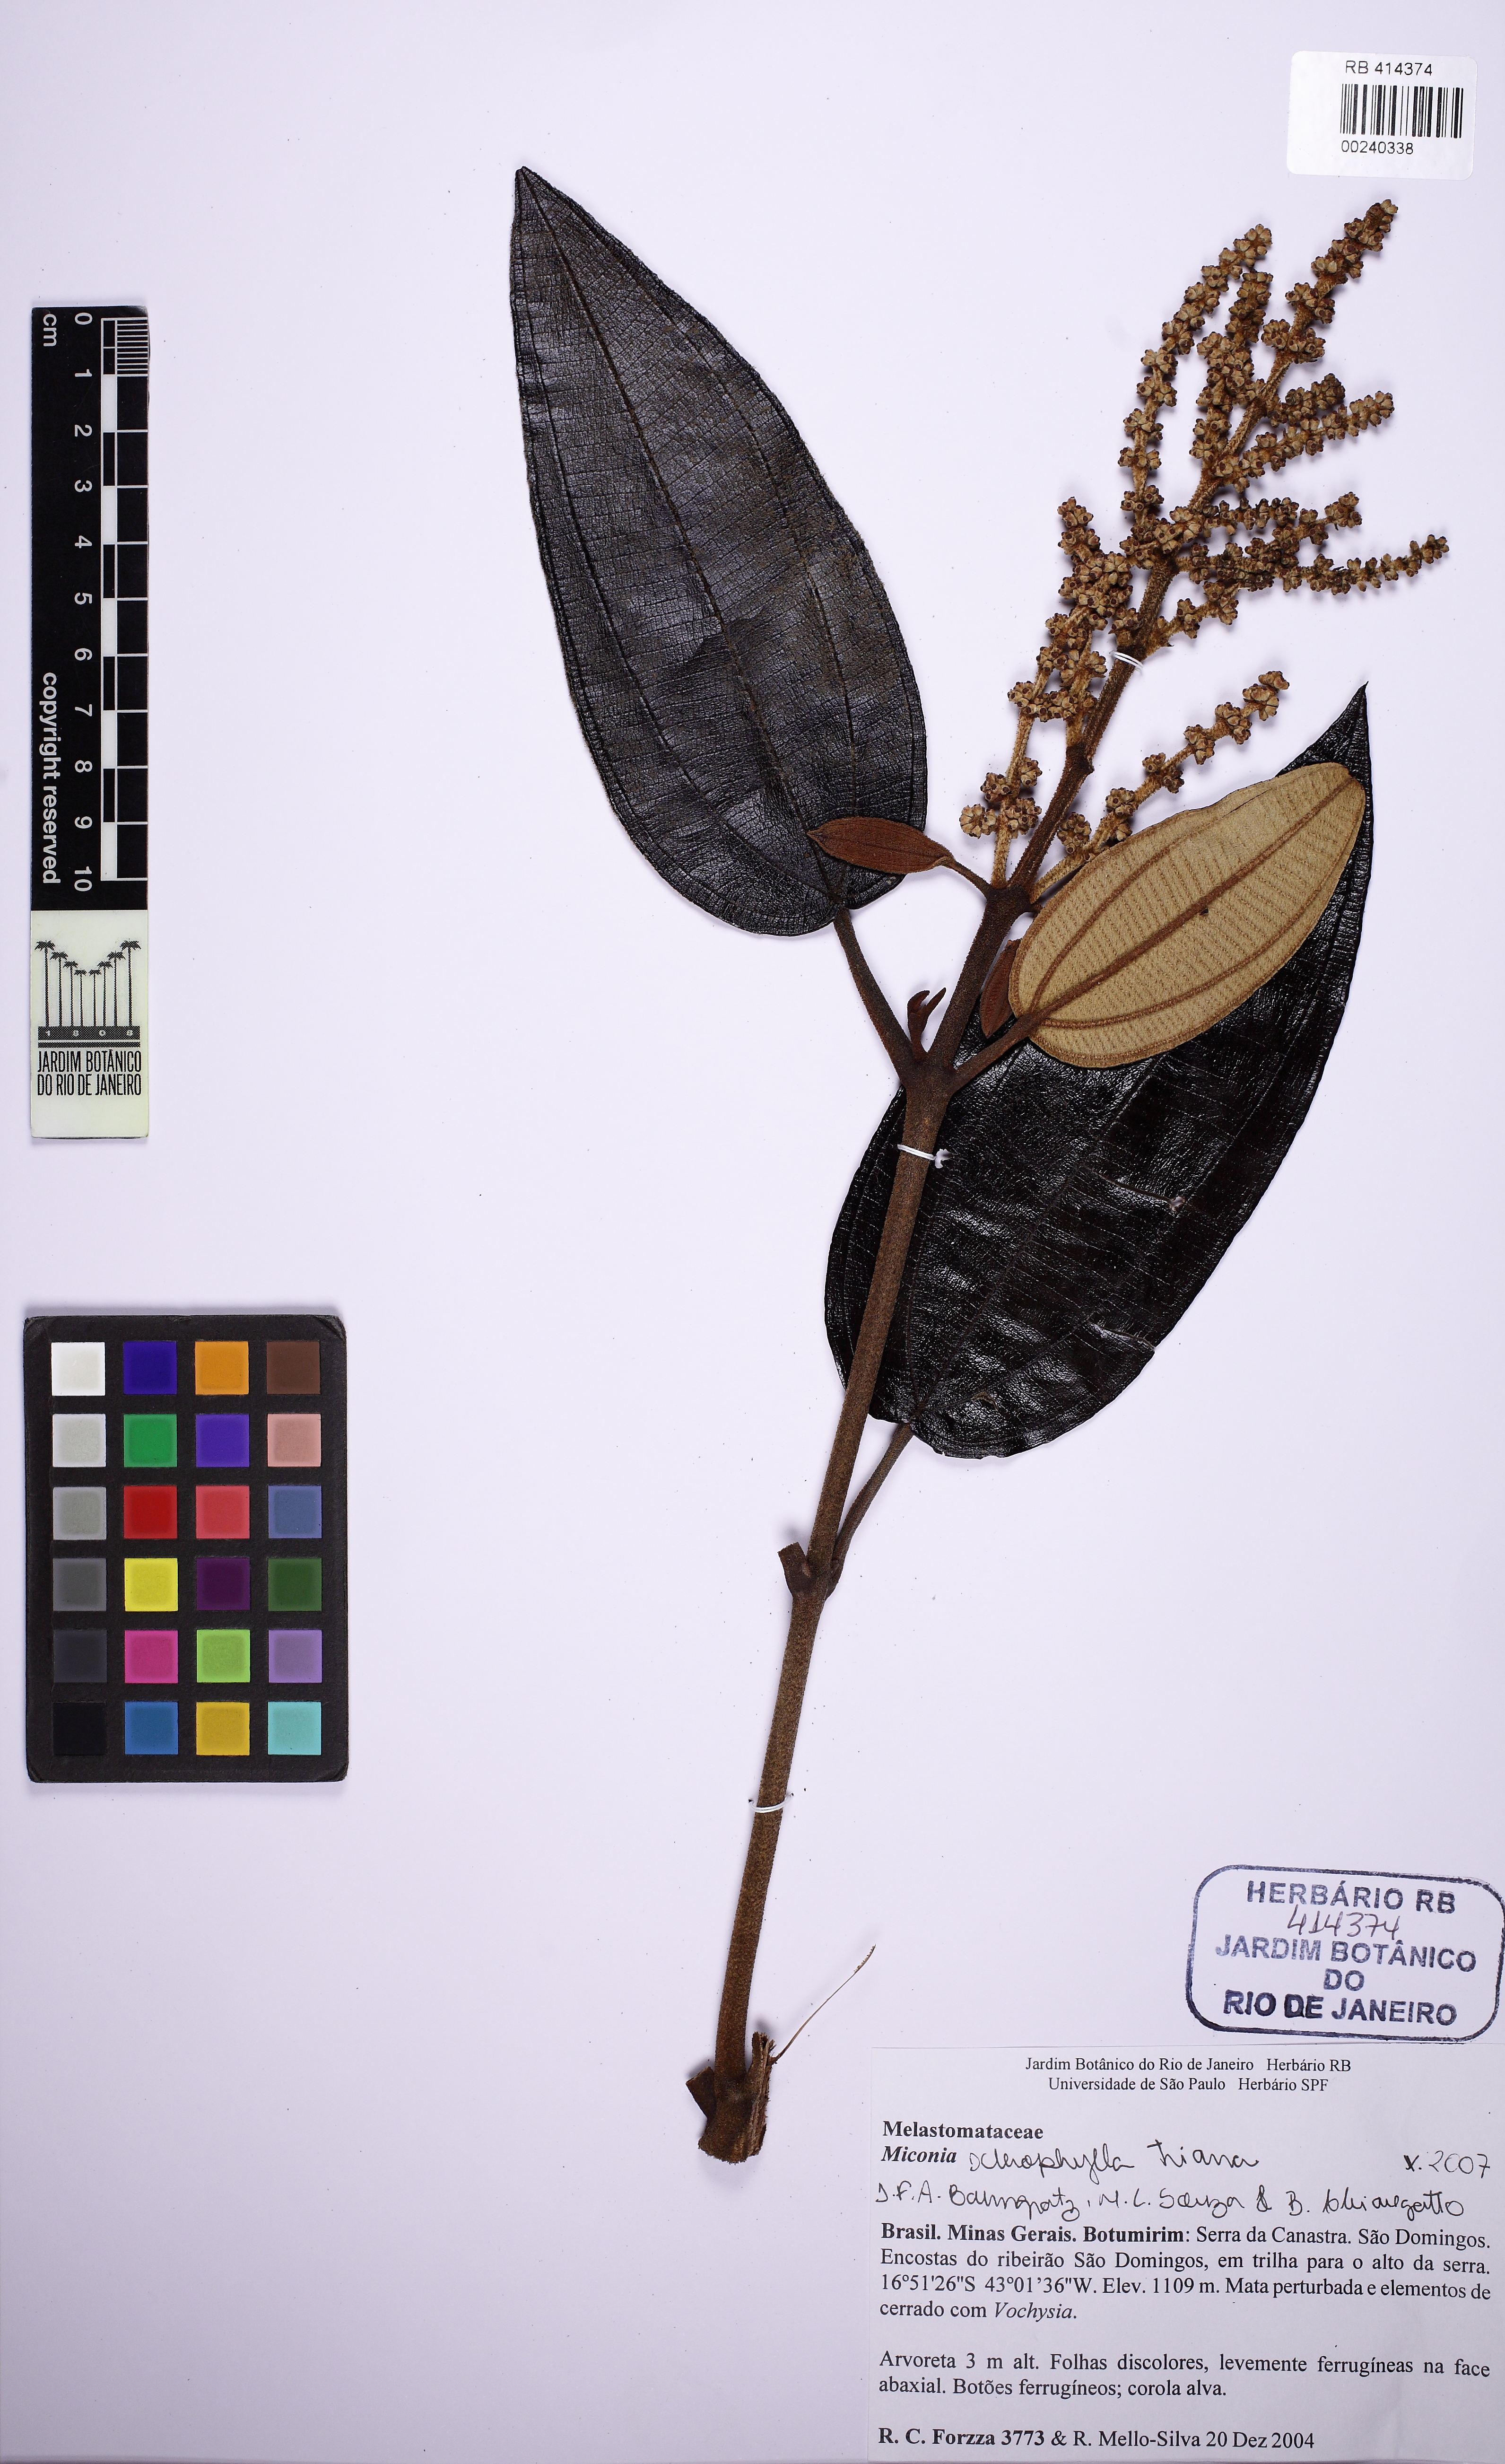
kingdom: Plantae
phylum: Tracheophyta
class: Magnoliopsida
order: Myrtales
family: Melastomataceae
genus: Miconia
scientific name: Miconia sclerophylla
